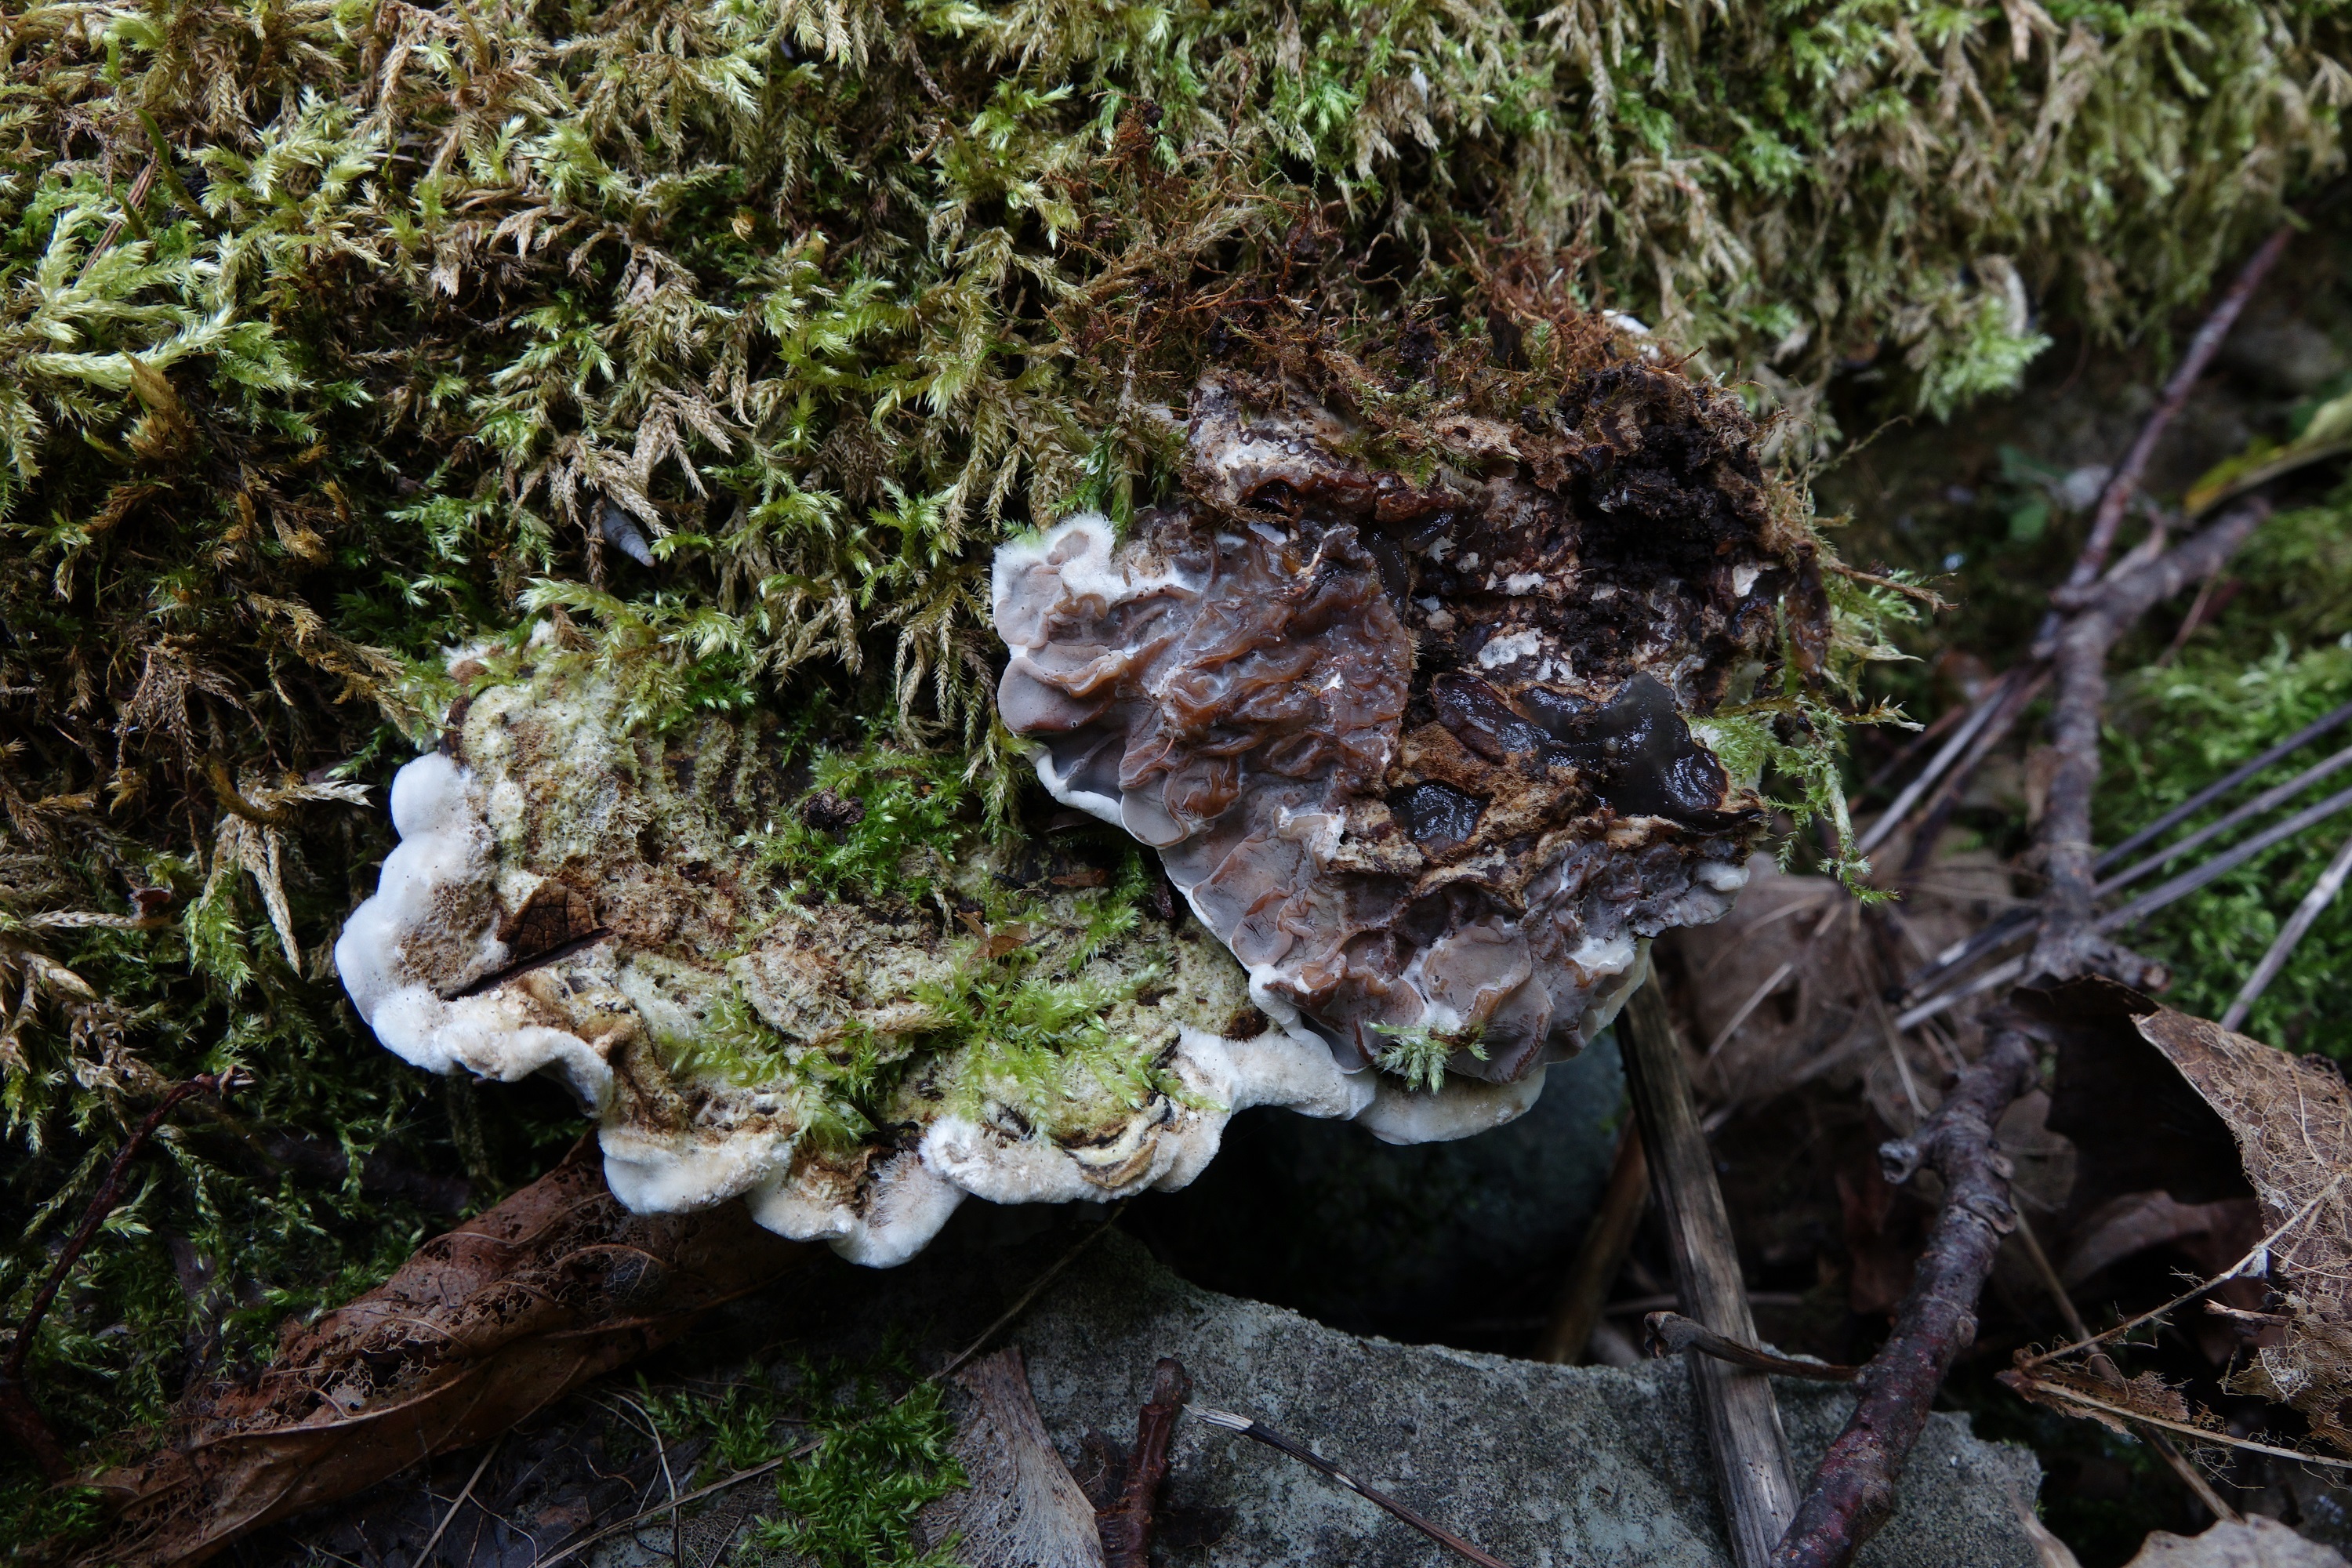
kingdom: Fungi
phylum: Basidiomycota
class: Agaricomycetes
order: Auriculariales
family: Auriculariaceae
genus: Auricularia
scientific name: Auricularia mesenterica
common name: Tripe fungus
